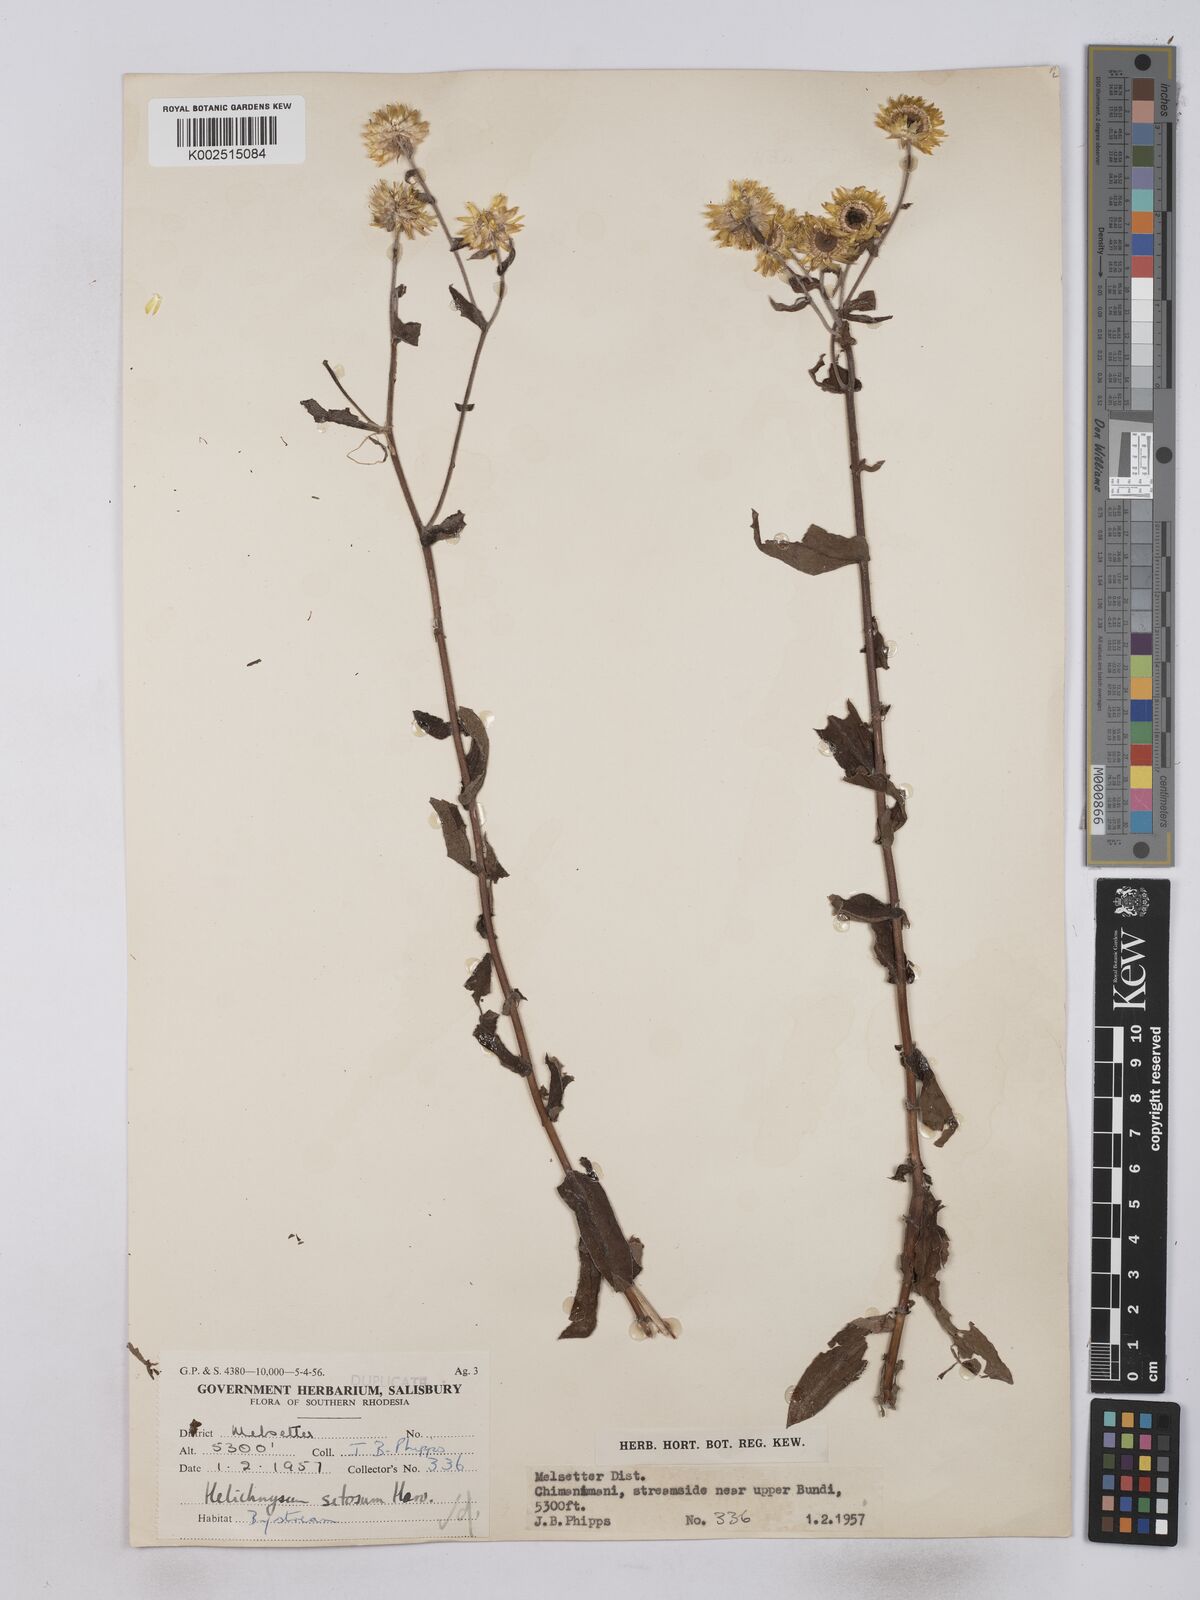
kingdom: Plantae
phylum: Tracheophyta
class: Magnoliopsida
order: Asterales
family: Asteraceae
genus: Helichrysum
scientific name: Helichrysum setosum
